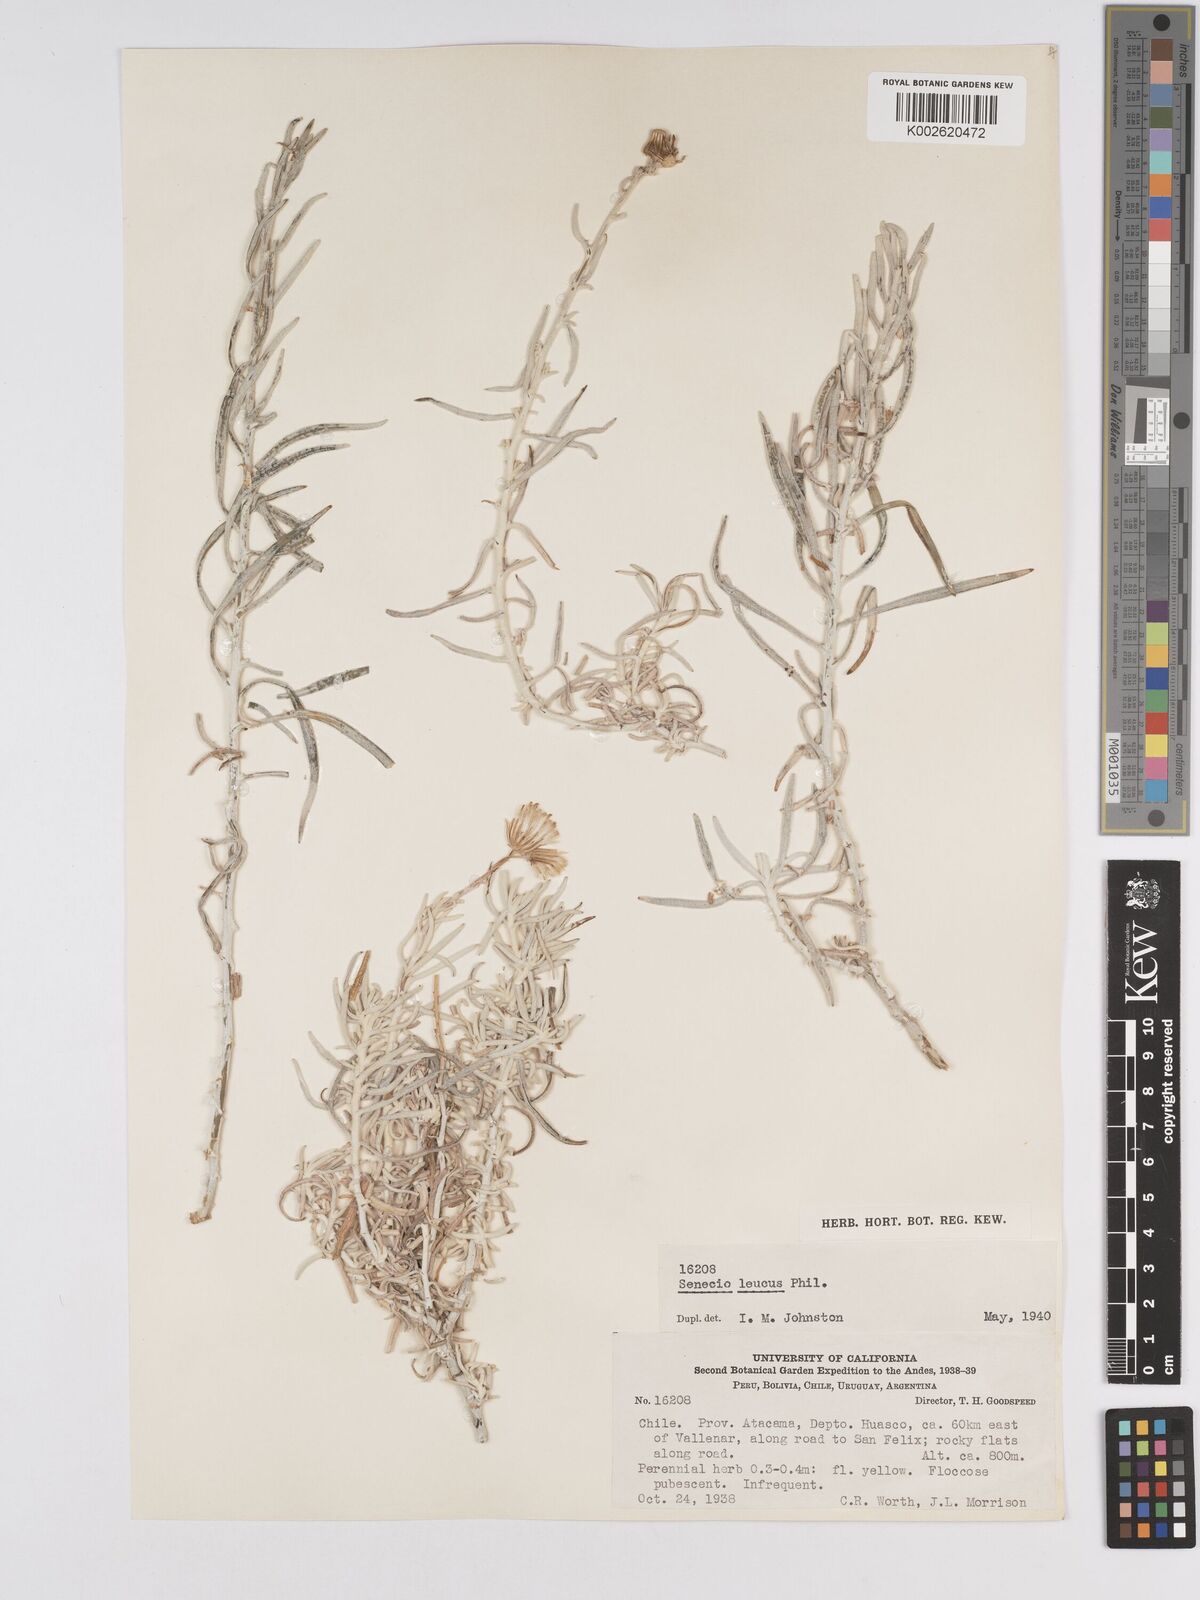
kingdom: Plantae
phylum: Tracheophyta
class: Magnoliopsida
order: Asterales
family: Asteraceae
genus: Senecio
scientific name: Senecio leucus
